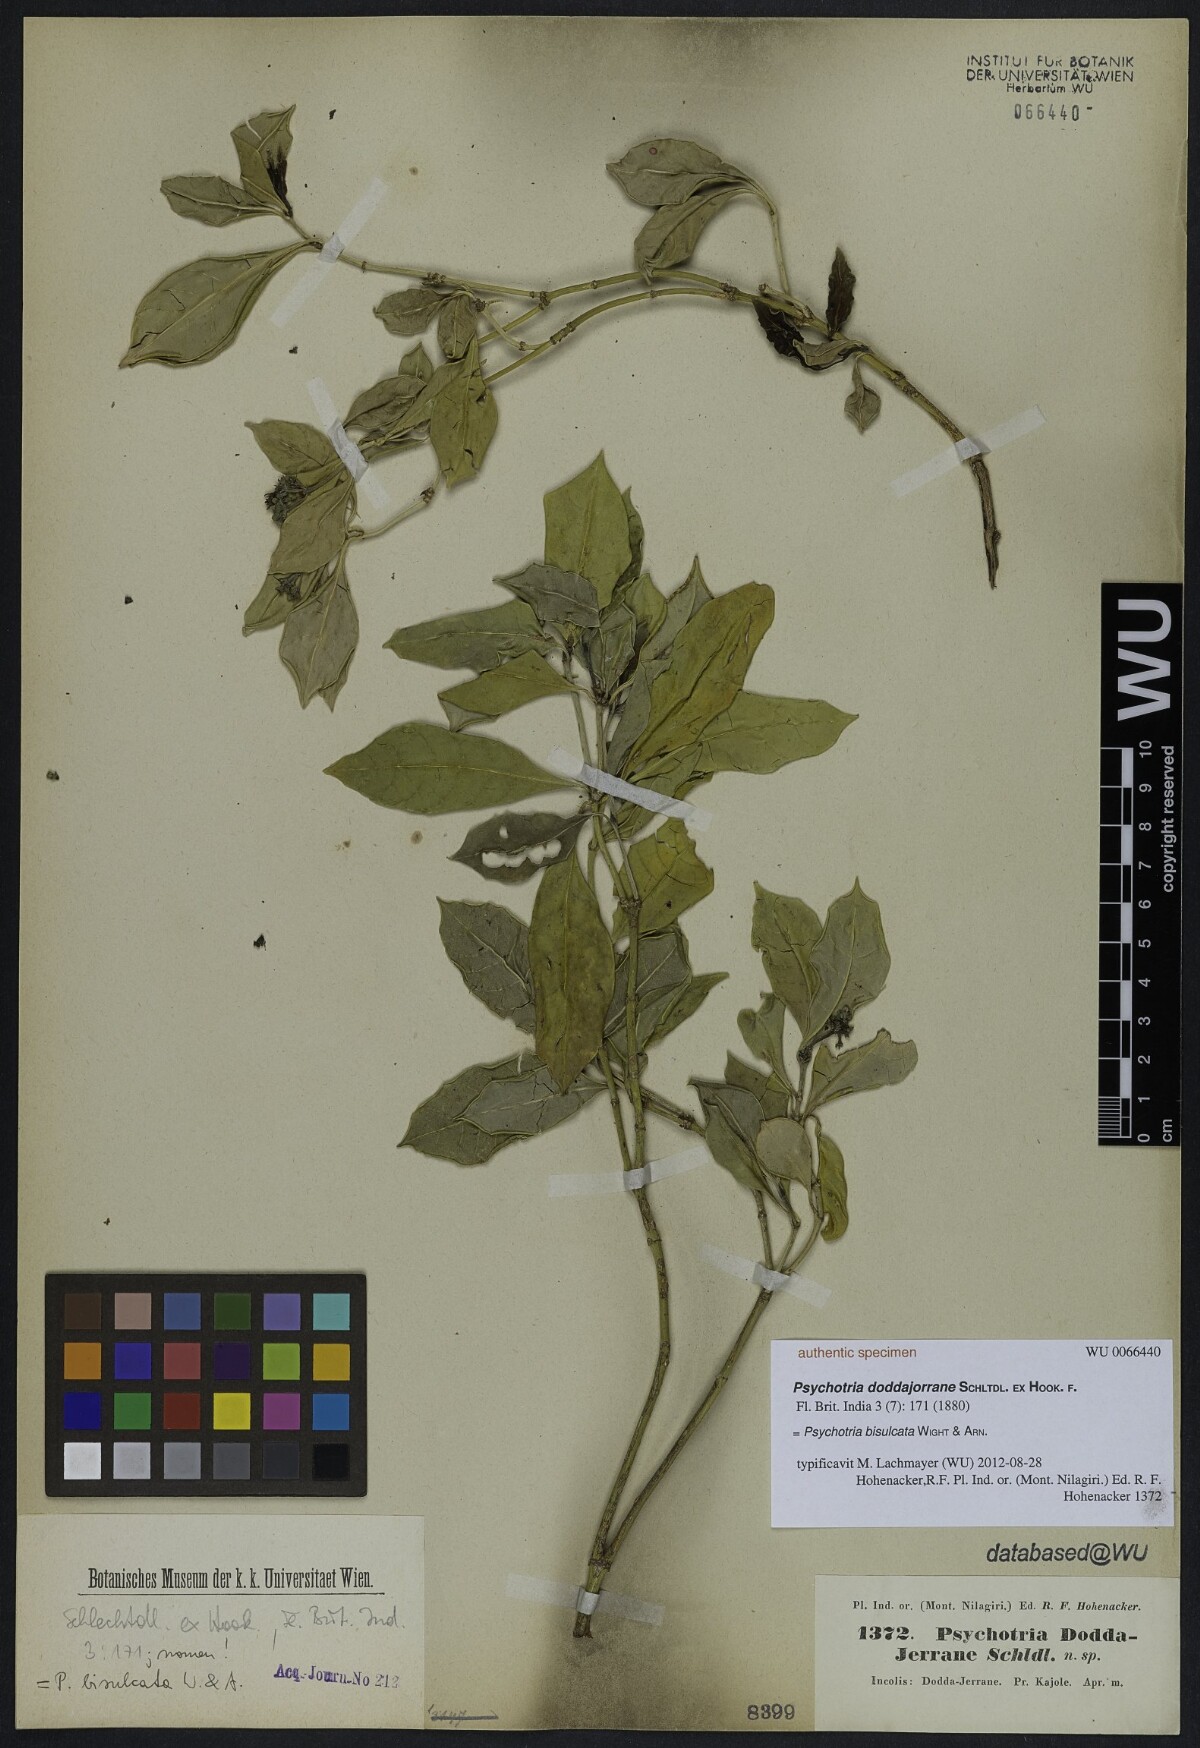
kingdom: Plantae
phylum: Tracheophyta
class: Magnoliopsida
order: Gentianales
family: Rubiaceae
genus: Psychotria
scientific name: Psychotria bisulcata
